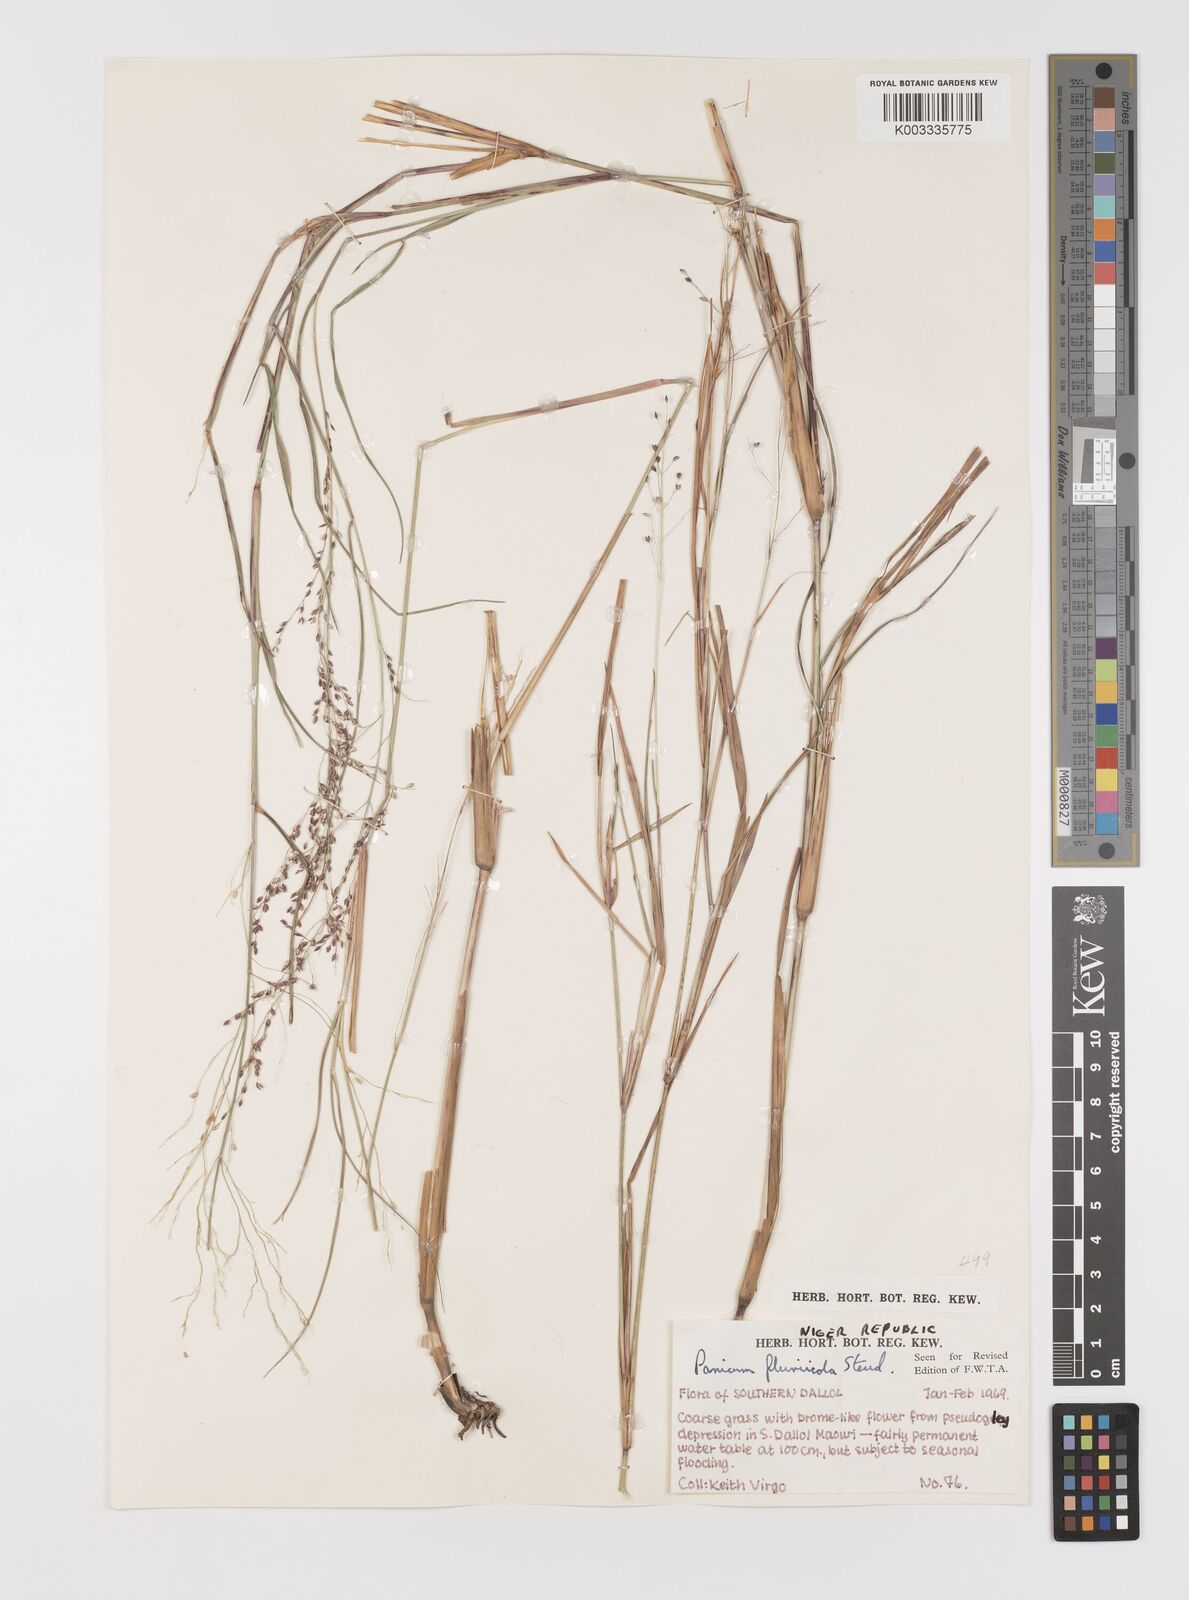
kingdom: Plantae
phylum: Tracheophyta
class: Liliopsida
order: Poales
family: Poaceae
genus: Panicum
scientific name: Panicum fluviicola
